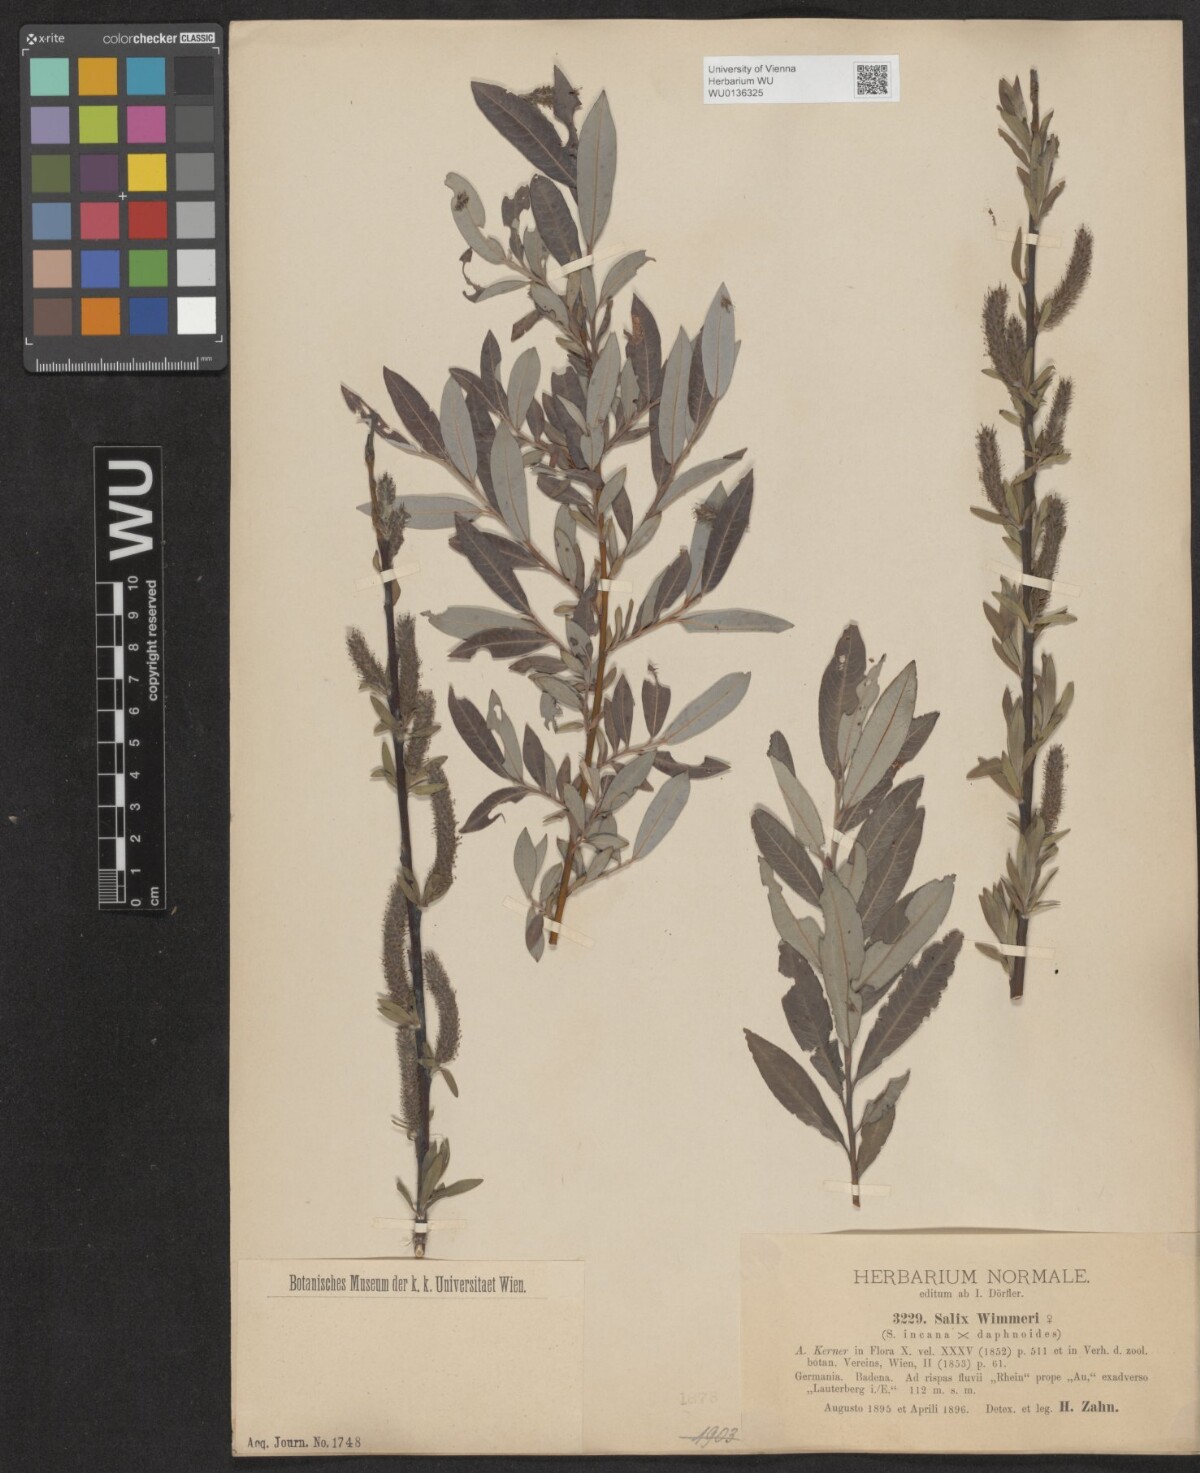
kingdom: Plantae
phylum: Tracheophyta
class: Magnoliopsida
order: Malpighiales
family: Salicaceae
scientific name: Salicaceae
